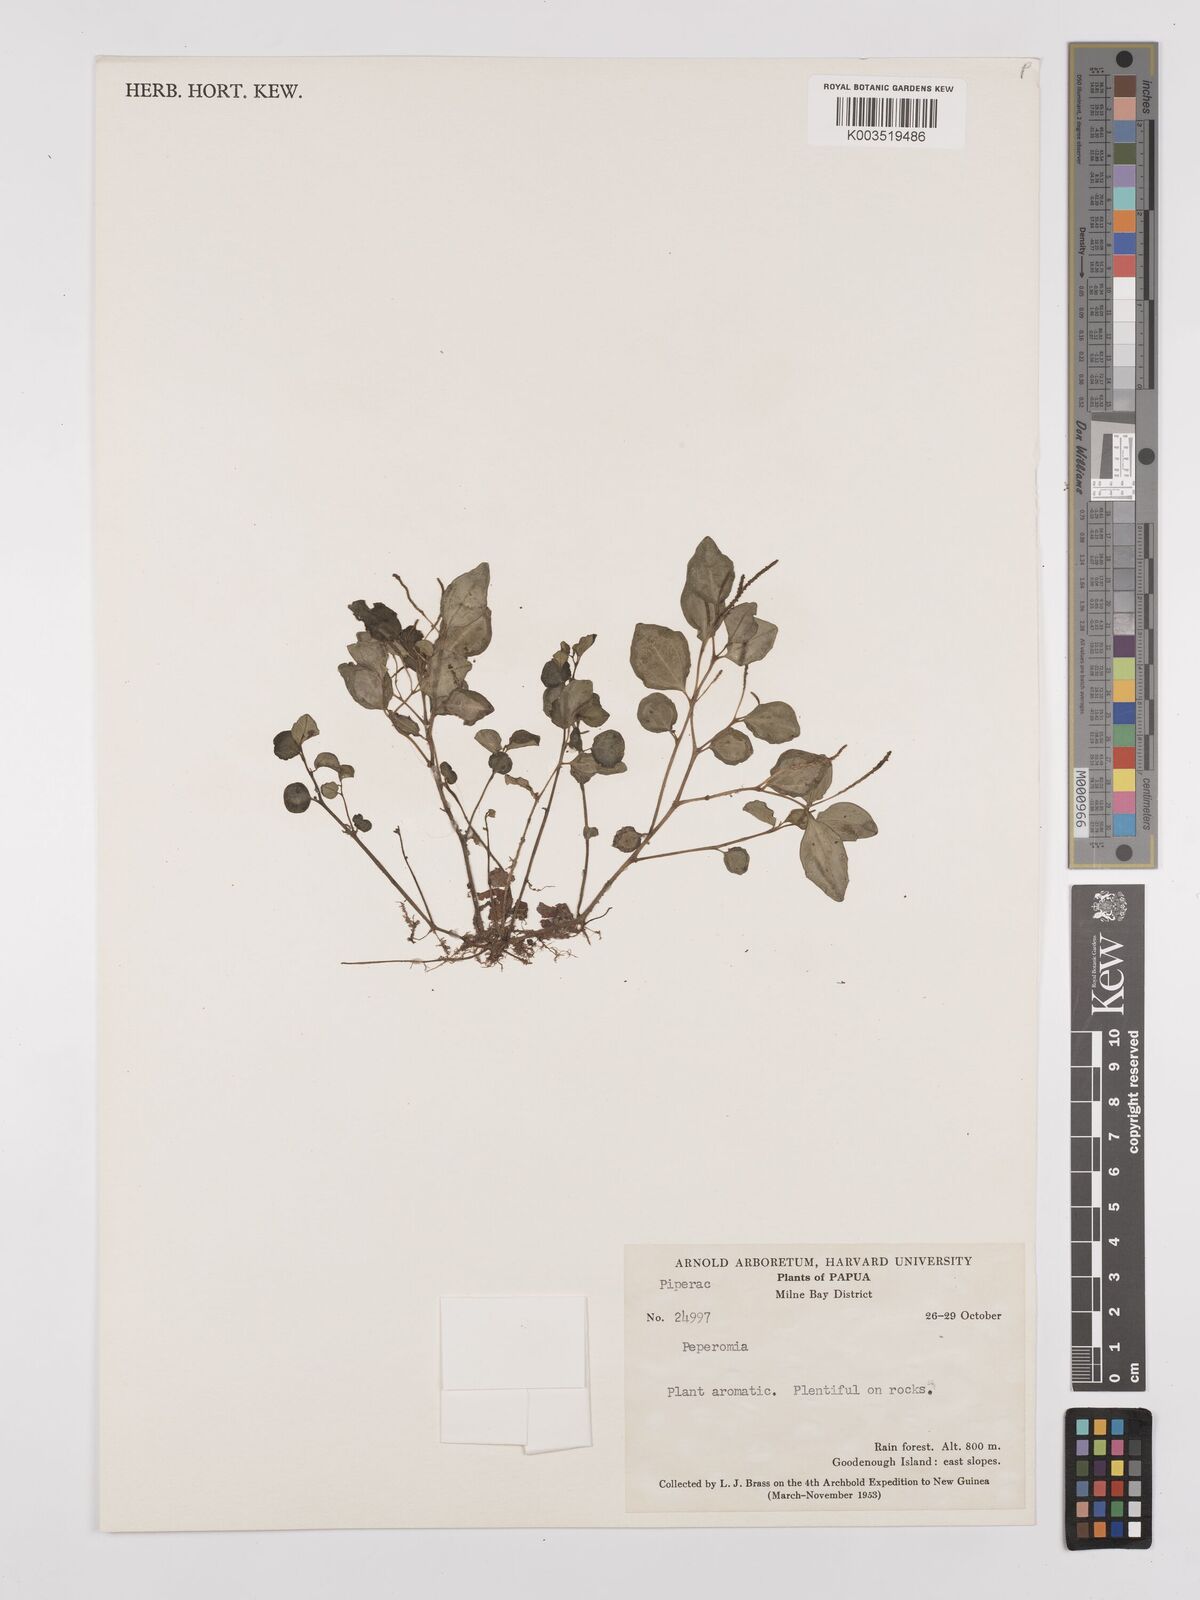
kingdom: Plantae
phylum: Tracheophyta
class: Magnoliopsida
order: Piperales
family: Piperaceae
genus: Peperomia
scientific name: Peperomia
